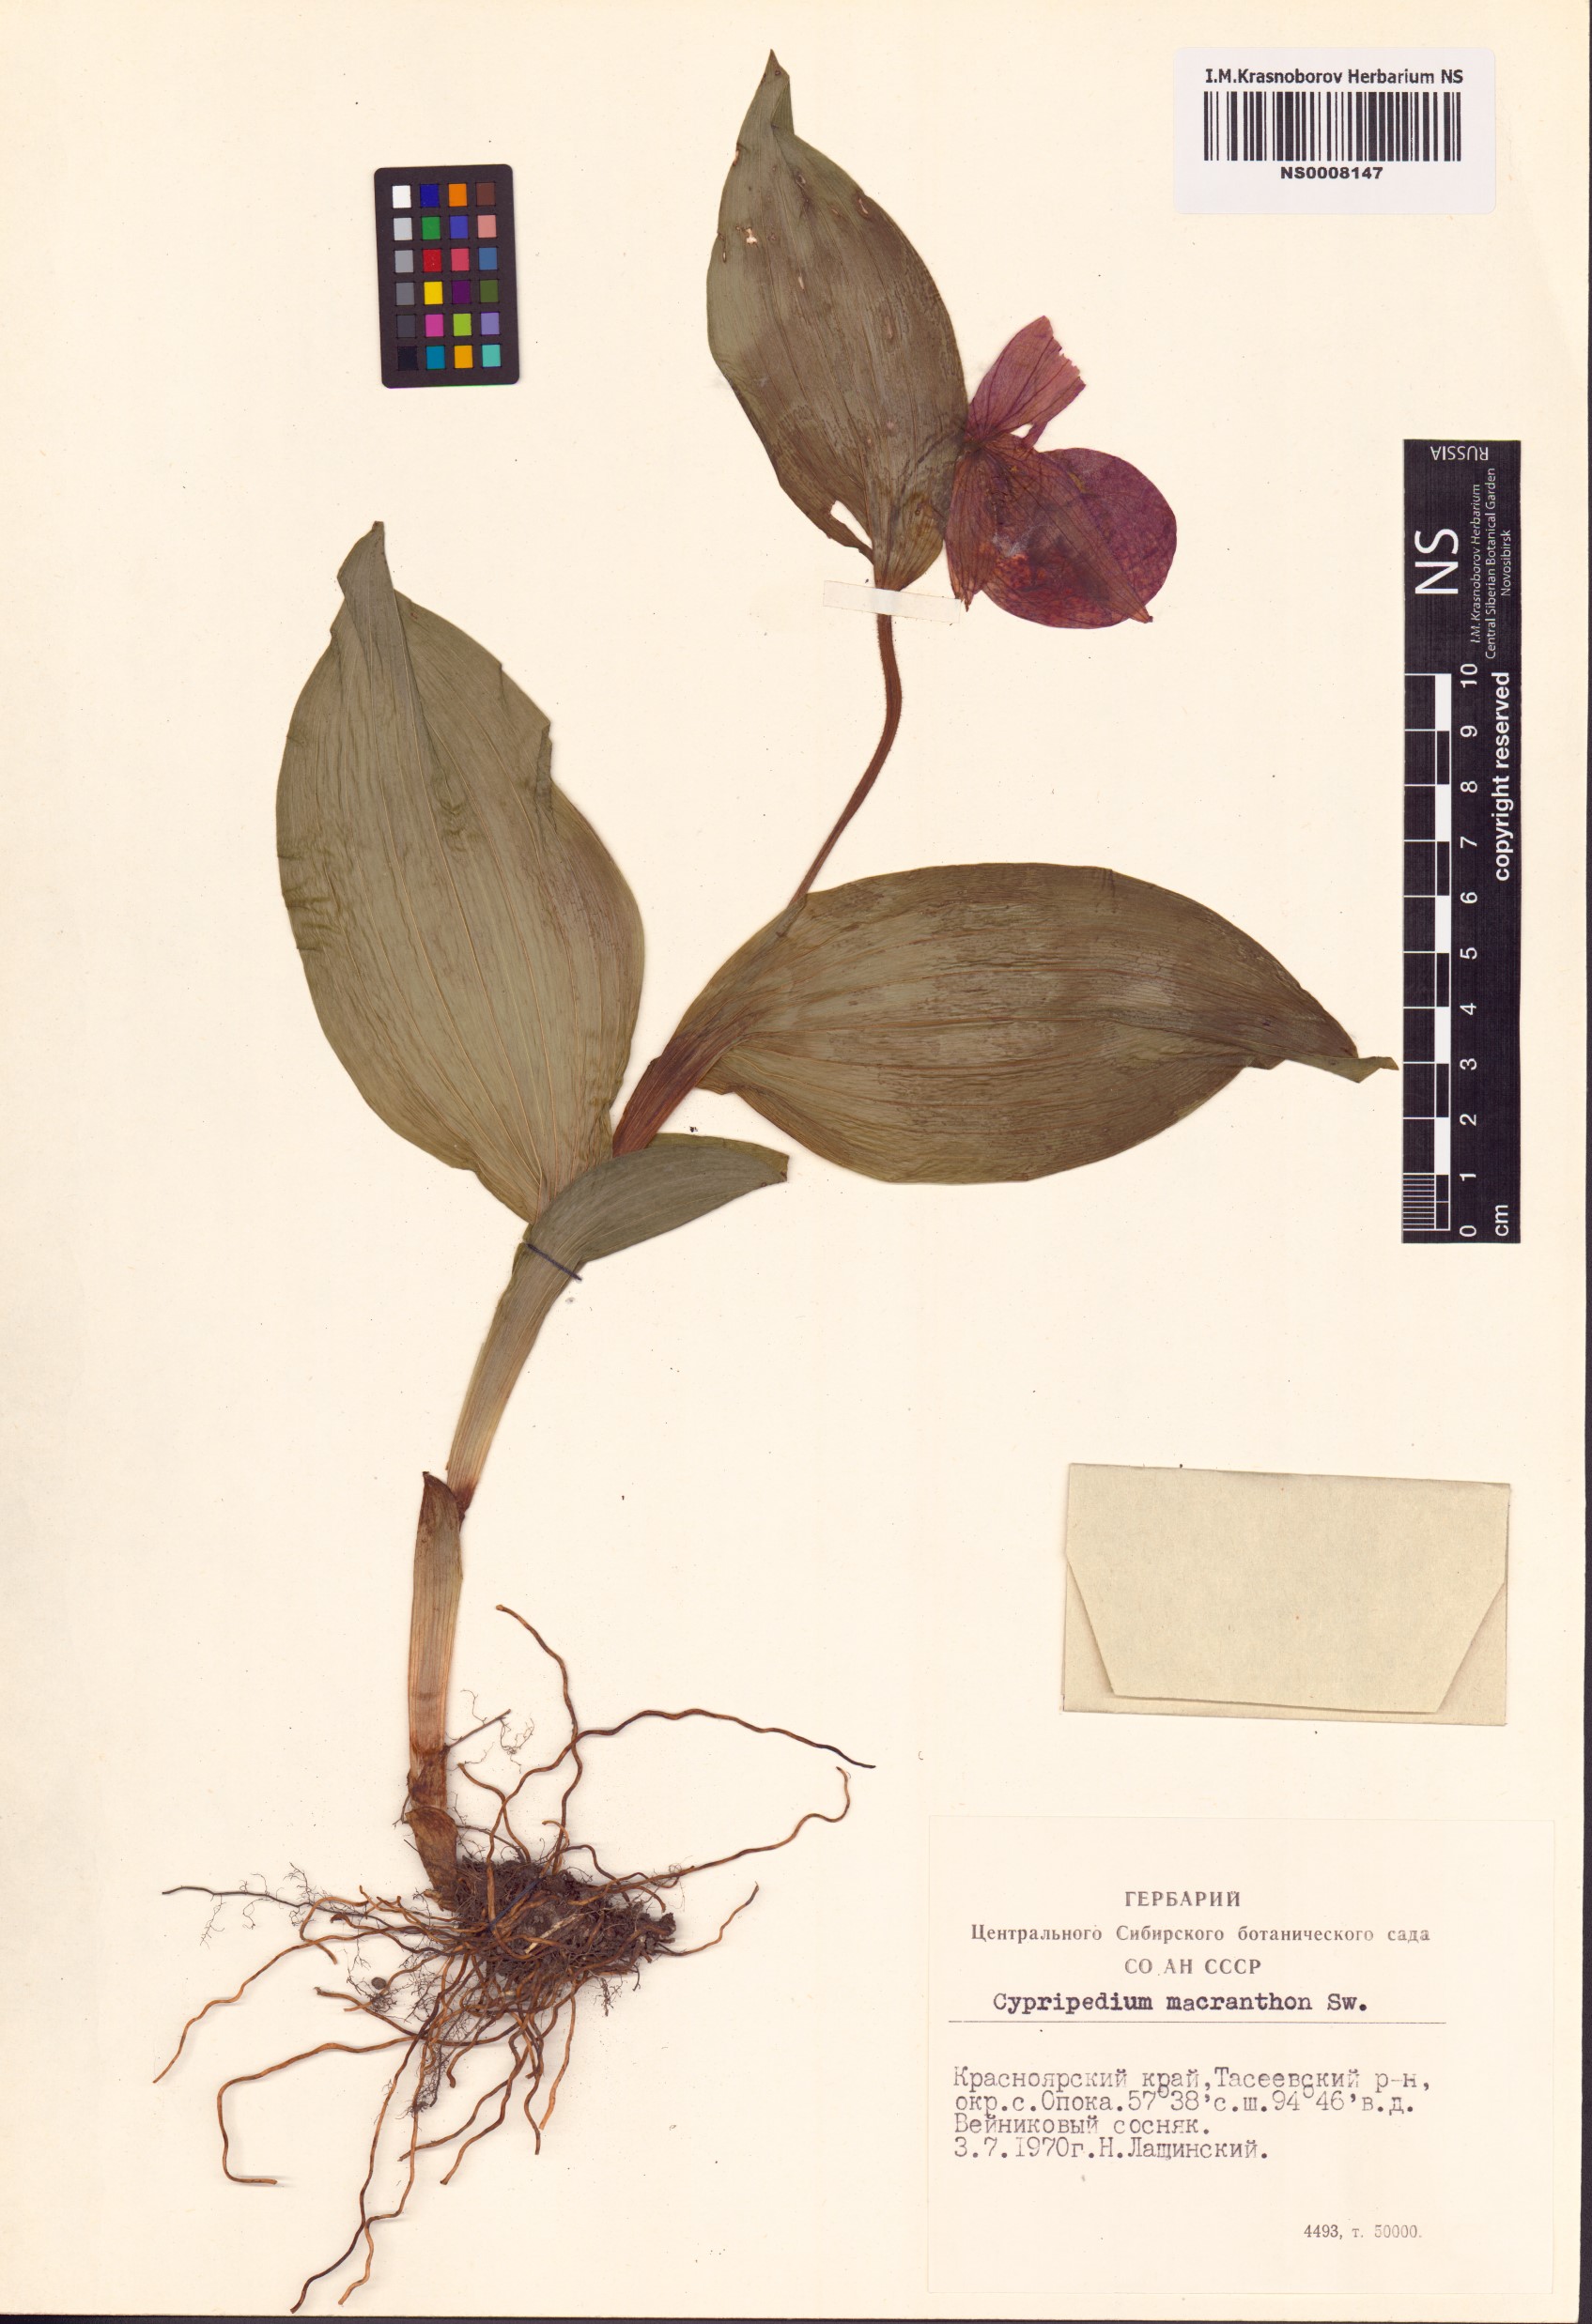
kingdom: Plantae
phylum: Tracheophyta
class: Liliopsida
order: Asparagales
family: Orchidaceae
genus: Cypripedium
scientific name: Cypripedium macranthos
